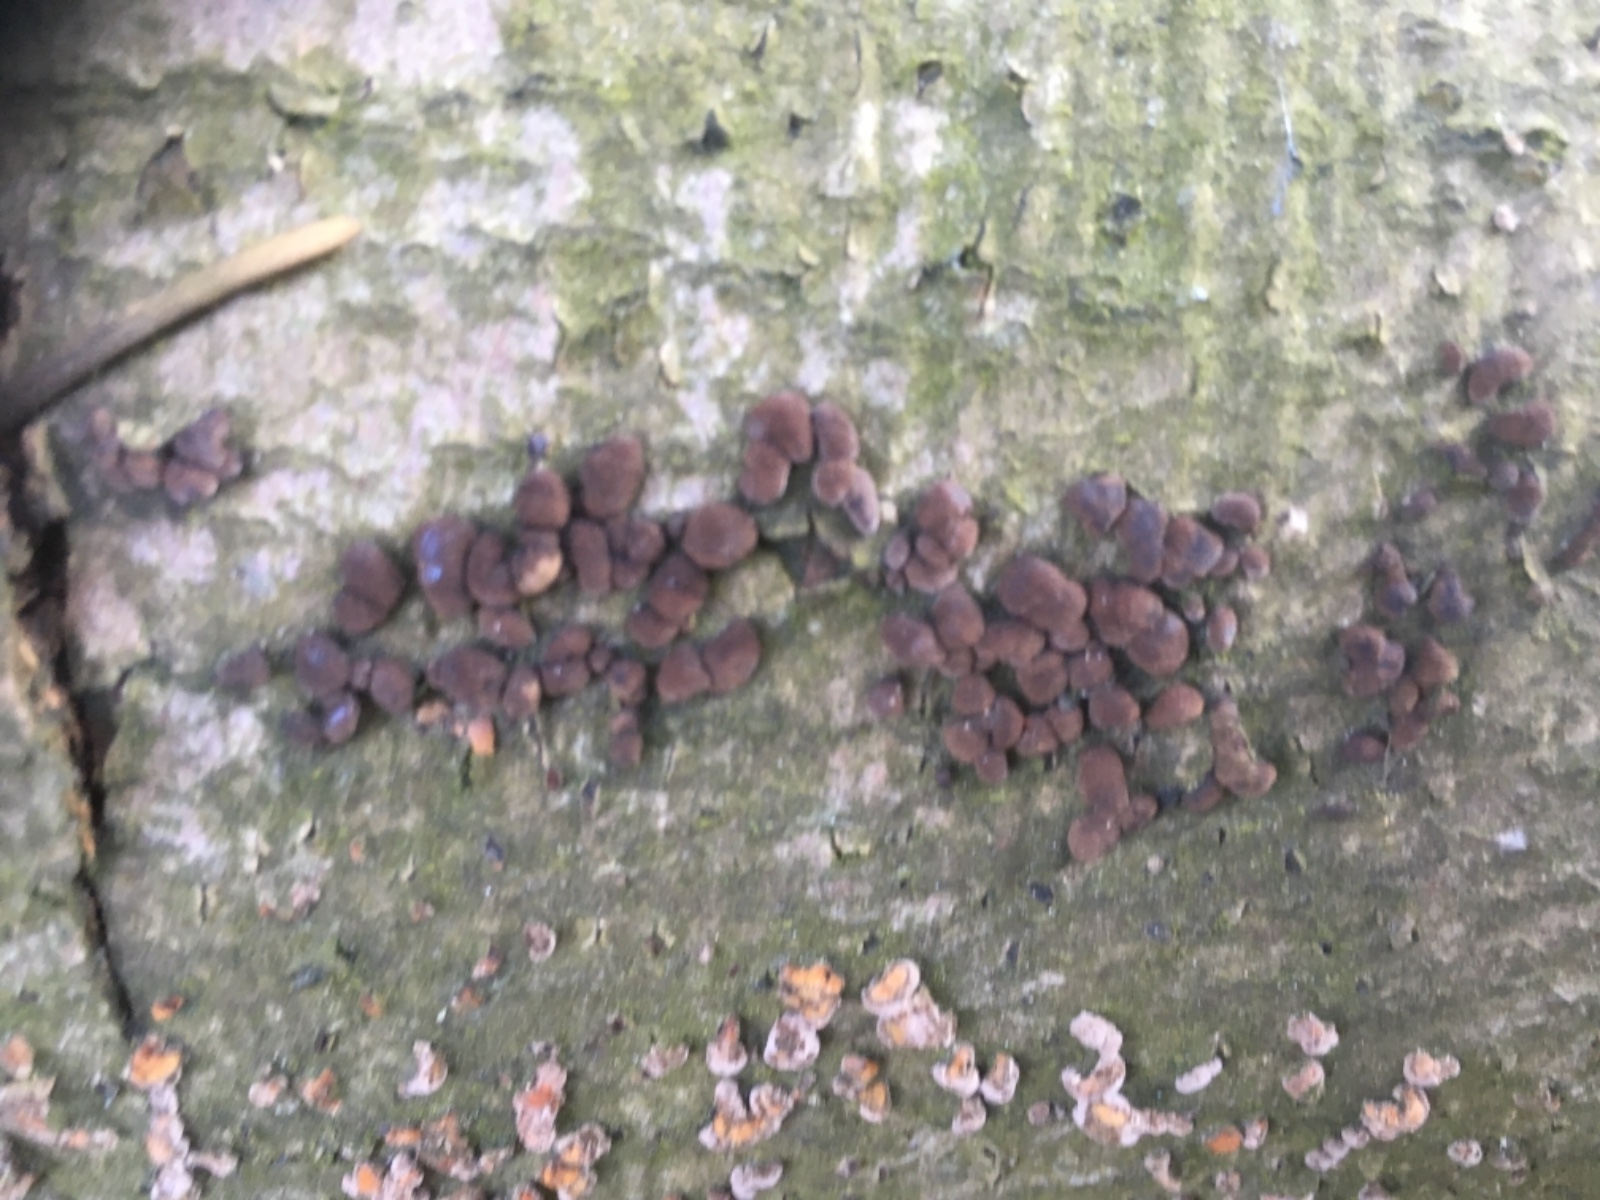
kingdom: Fungi
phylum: Ascomycota
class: Sordariomycetes
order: Xylariales
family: Hypoxylaceae
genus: Hypoxylon
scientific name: Hypoxylon fragiforme
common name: kuljordbær
